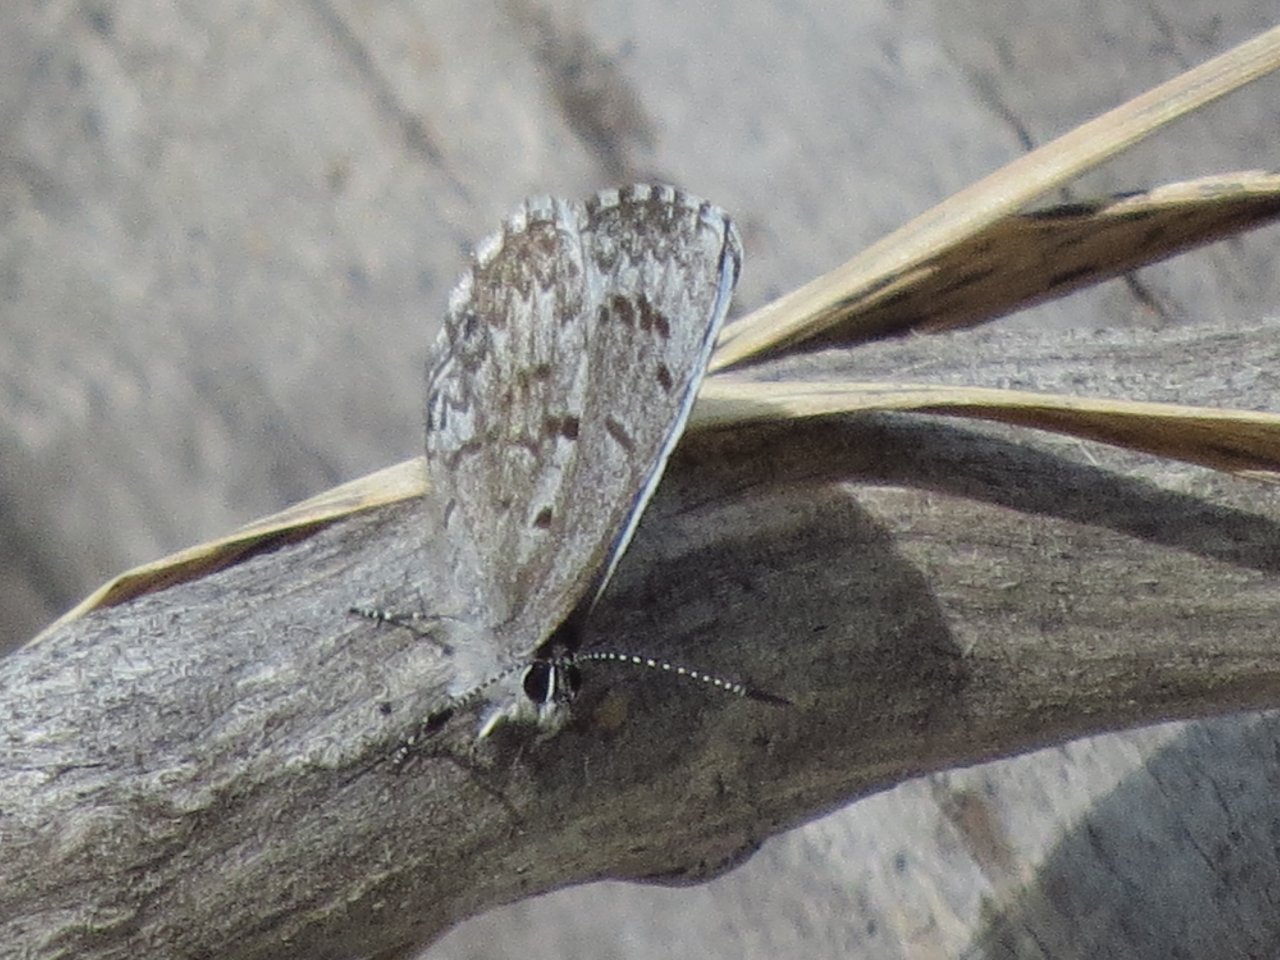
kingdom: Animalia
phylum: Arthropoda
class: Insecta
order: Lepidoptera
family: Lycaenidae
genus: Celastrina
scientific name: Celastrina lucia
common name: Northern Spring Azure
